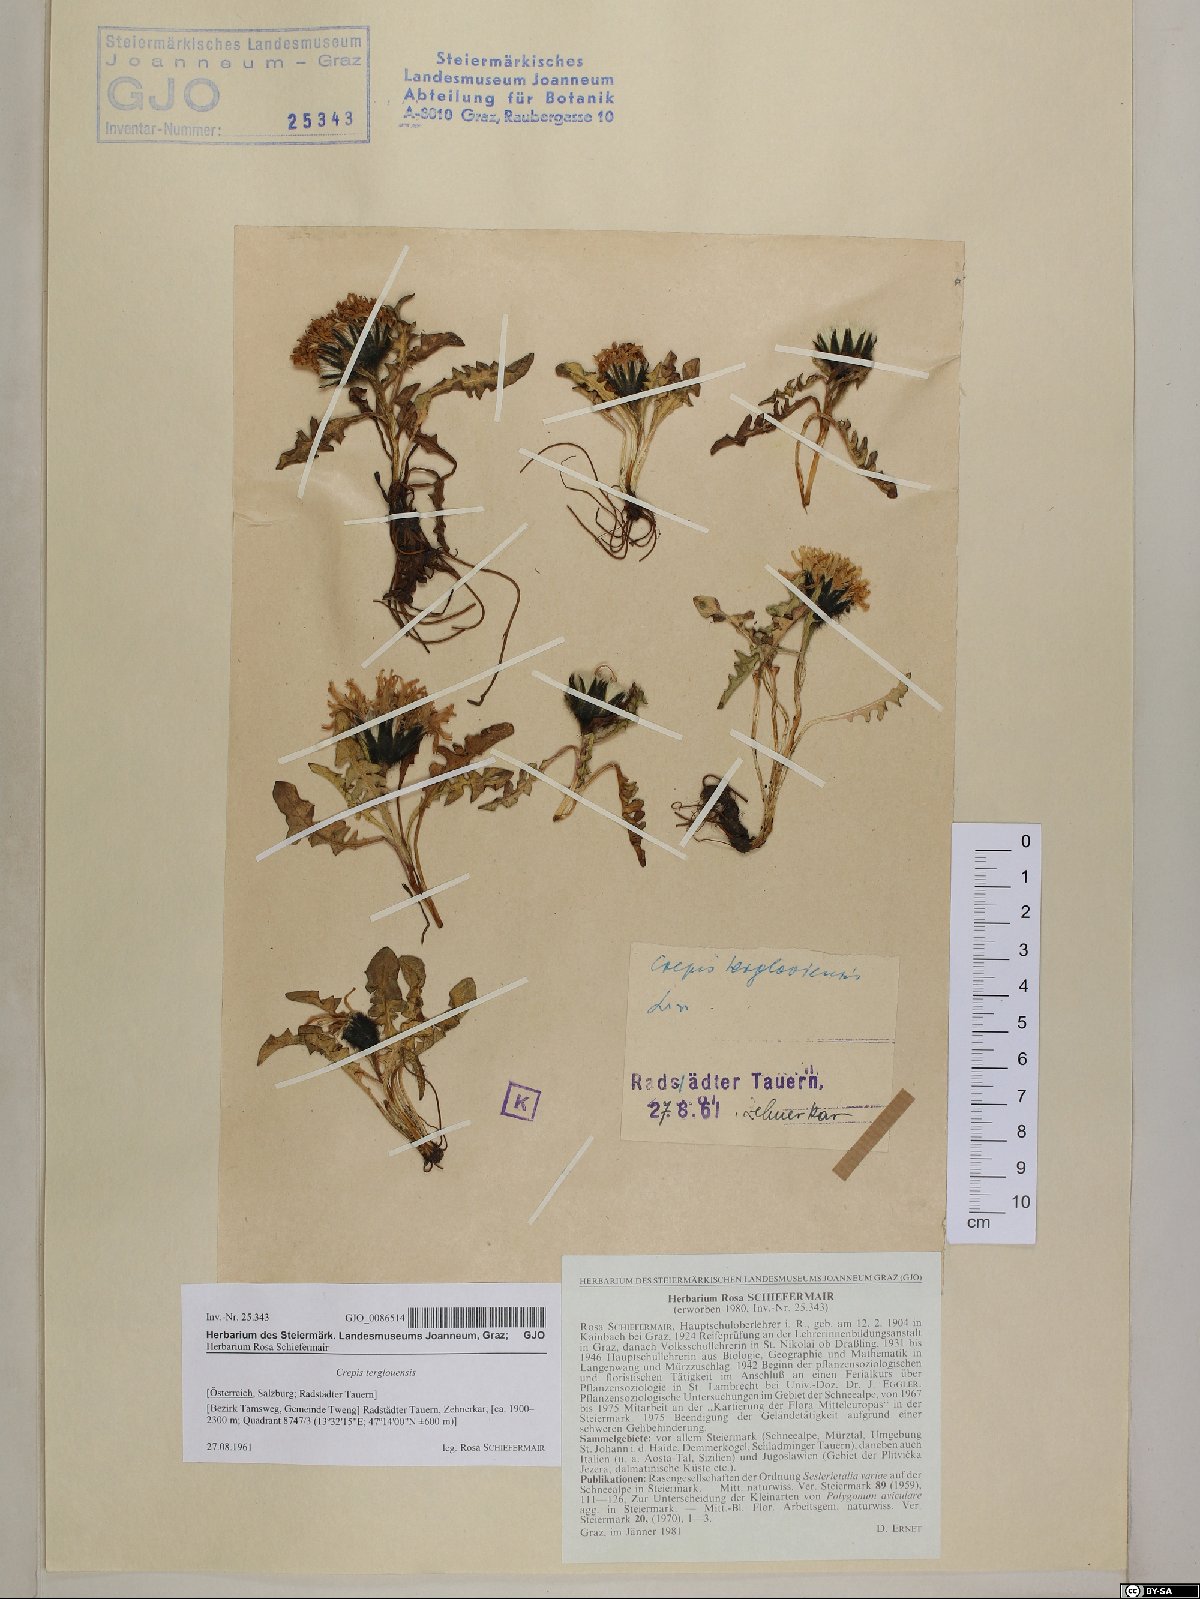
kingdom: Plantae
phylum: Tracheophyta
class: Magnoliopsida
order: Asterales
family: Asteraceae
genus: Crepis
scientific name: Crepis terglouensis
